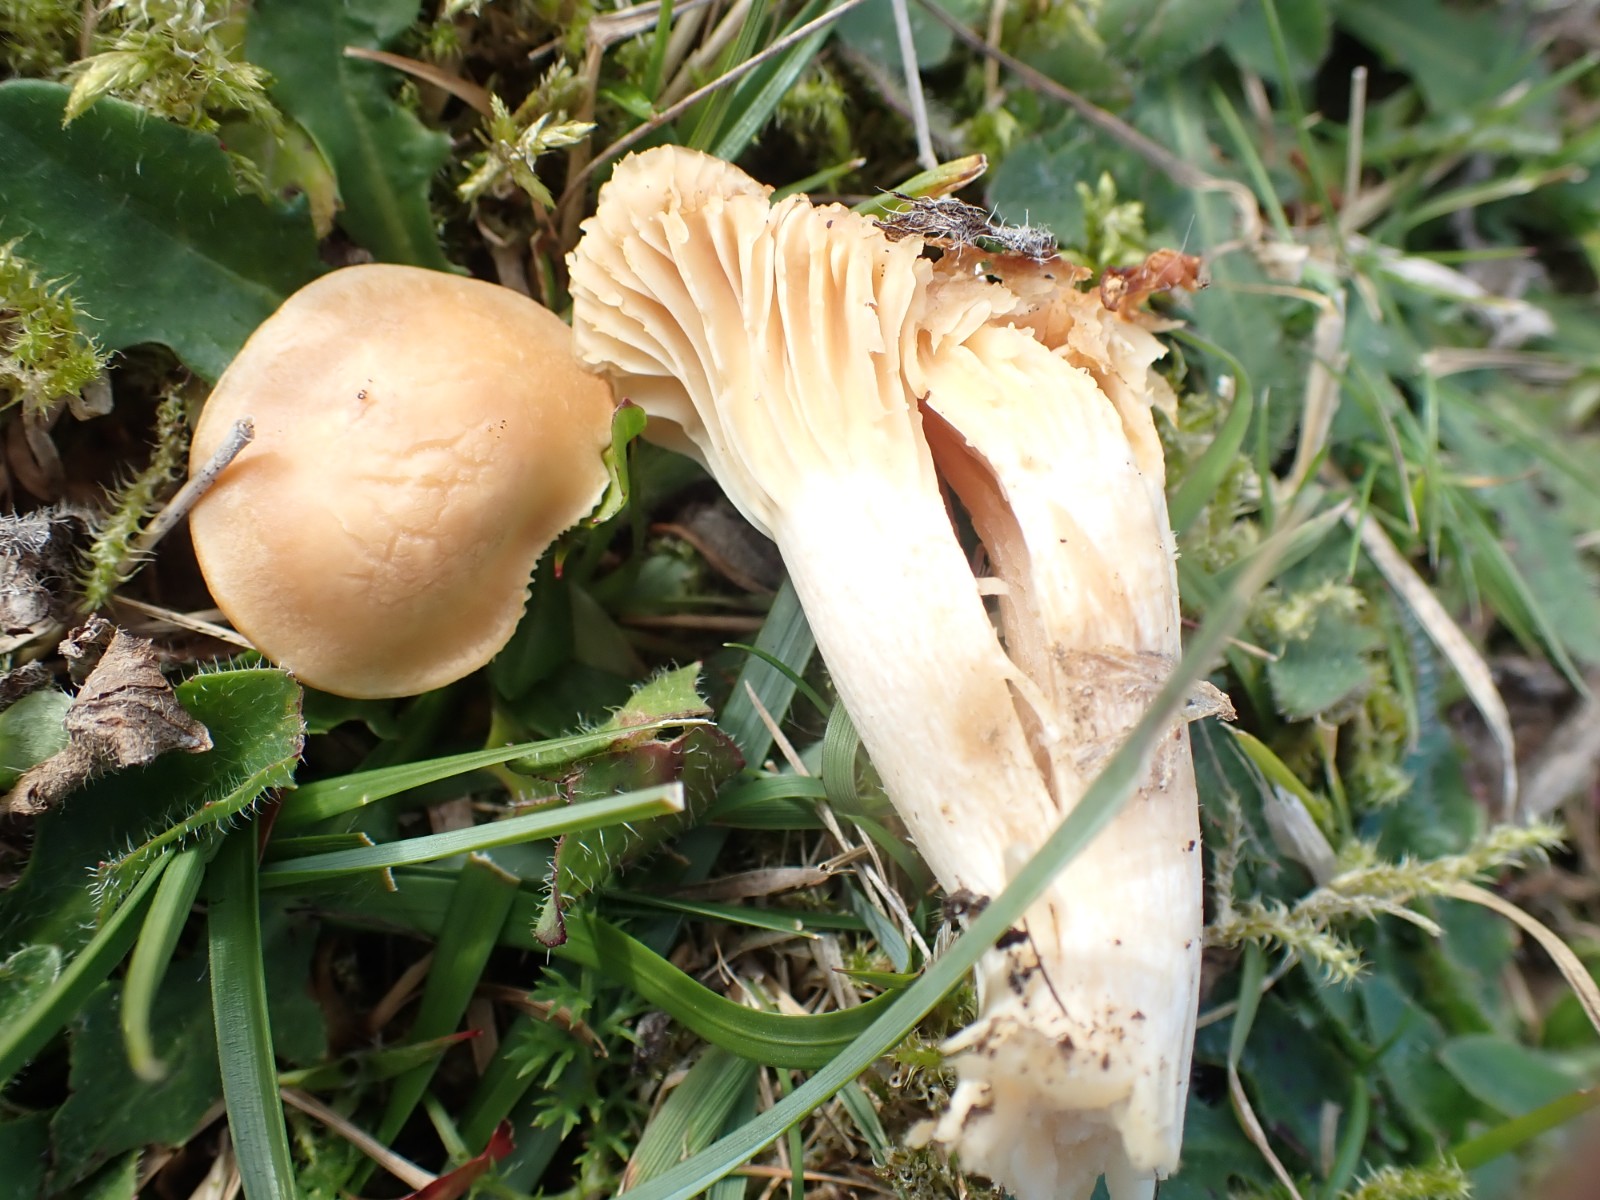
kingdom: Fungi
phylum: Basidiomycota
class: Agaricomycetes
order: Agaricales
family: Hygrophoraceae
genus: Cuphophyllus
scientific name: Cuphophyllus pratensis
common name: eng-vokshat
